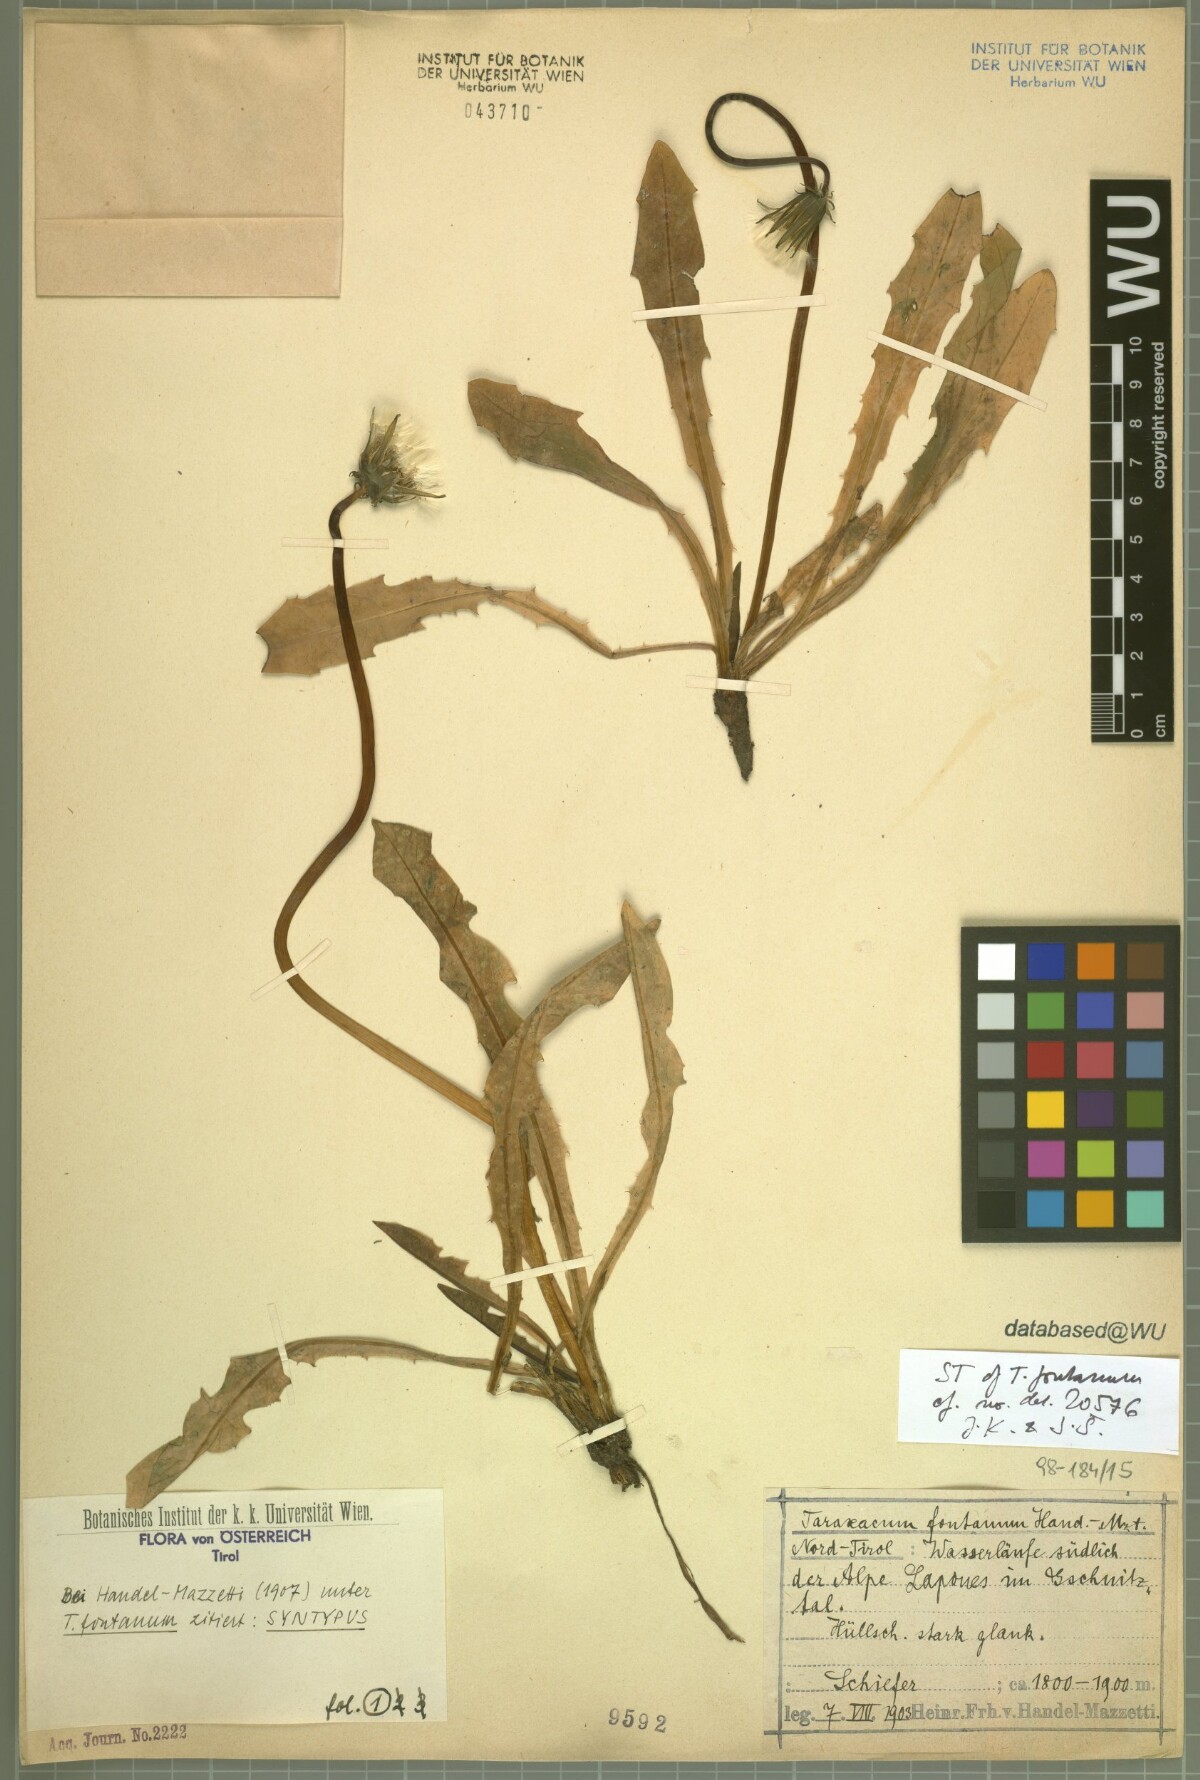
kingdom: Plantae
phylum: Tracheophyta
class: Magnoliopsida
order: Asterales
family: Asteraceae
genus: Taraxacum
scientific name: Taraxacum fontanum
